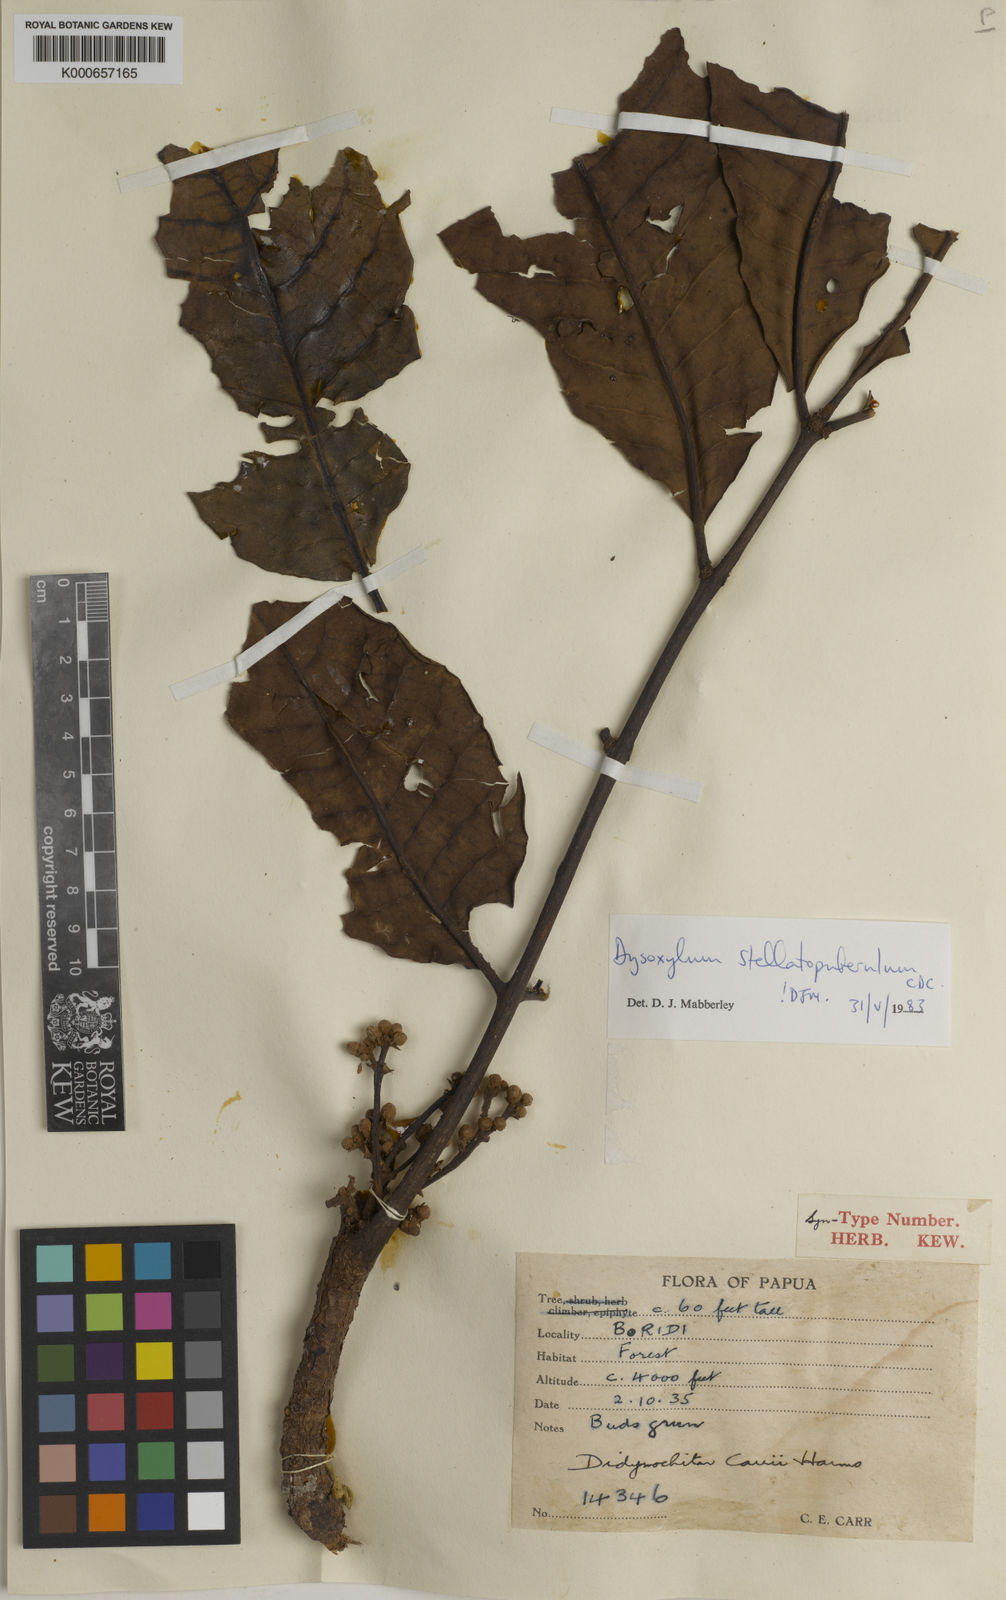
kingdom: Plantae
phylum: Tracheophyta
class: Magnoliopsida
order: Sapindales
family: Meliaceae
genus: Didymocheton
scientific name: Didymocheton stellatopuberulus
